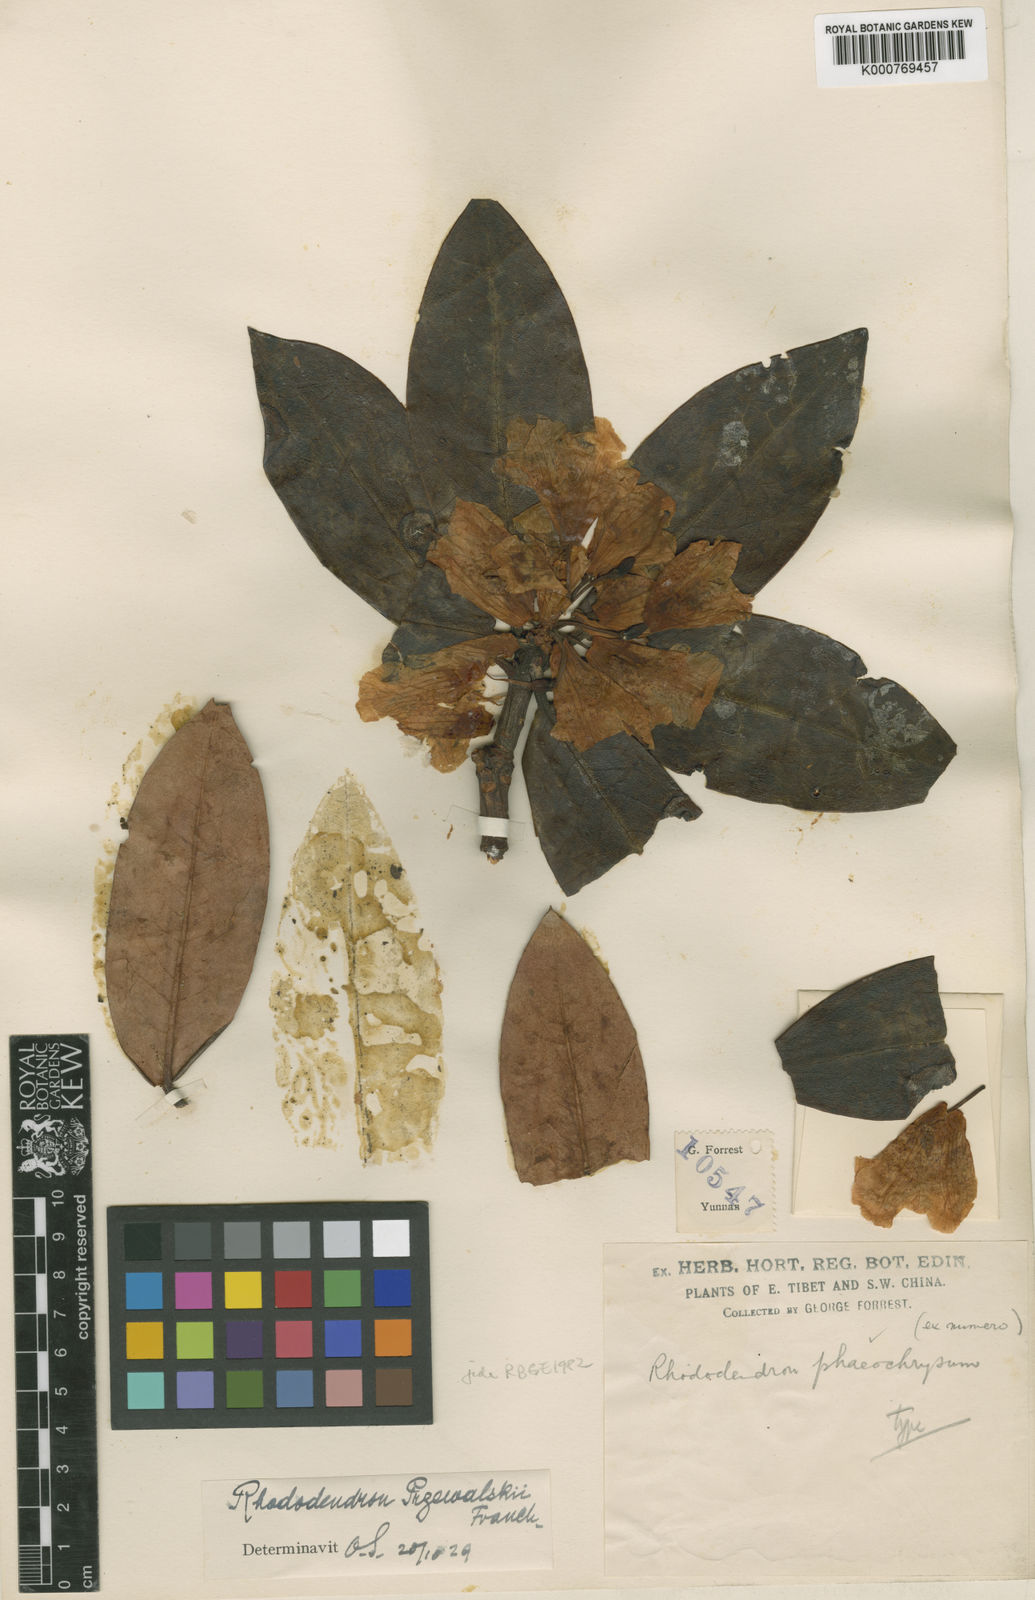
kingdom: Plantae
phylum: Tracheophyta
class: Magnoliopsida
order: Ericales
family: Ericaceae
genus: Rhododendron
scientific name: Rhododendron phaeochrysum
